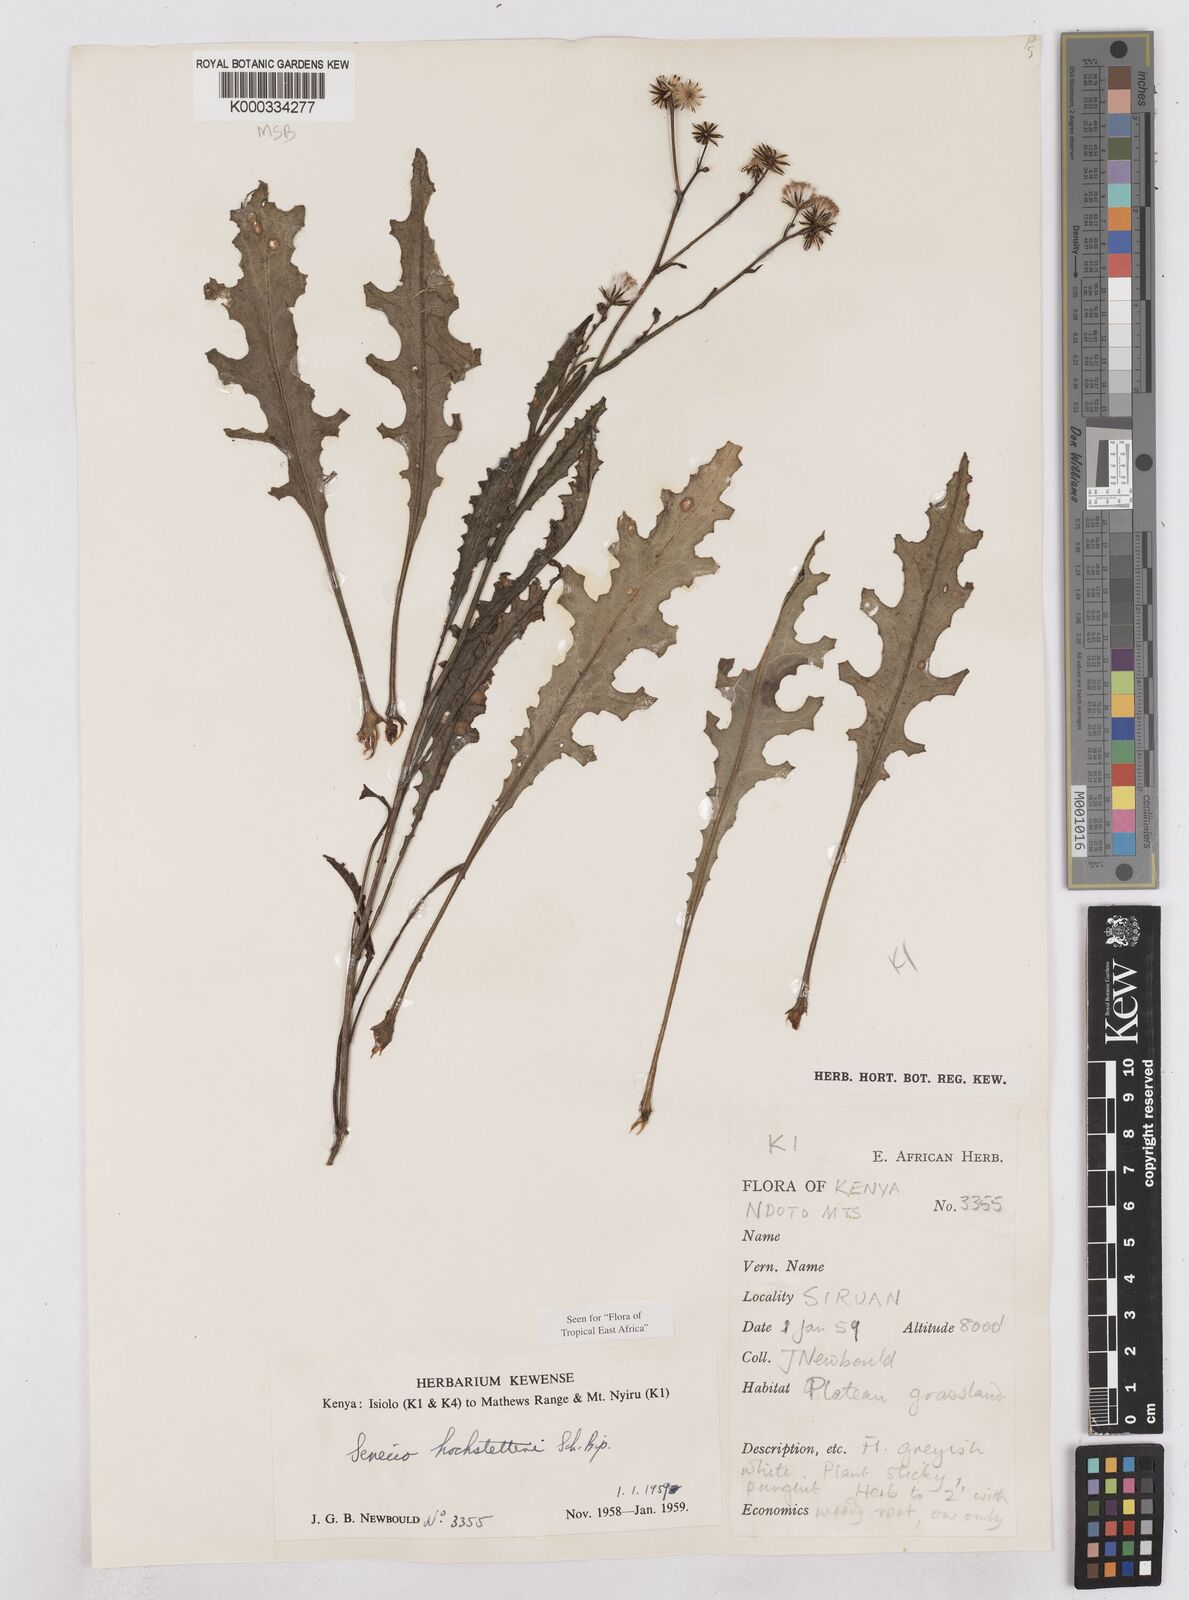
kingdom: Plantae
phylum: Tracheophyta
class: Magnoliopsida
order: Asterales
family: Asteraceae
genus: Senecio
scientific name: Senecio hochstetteri
